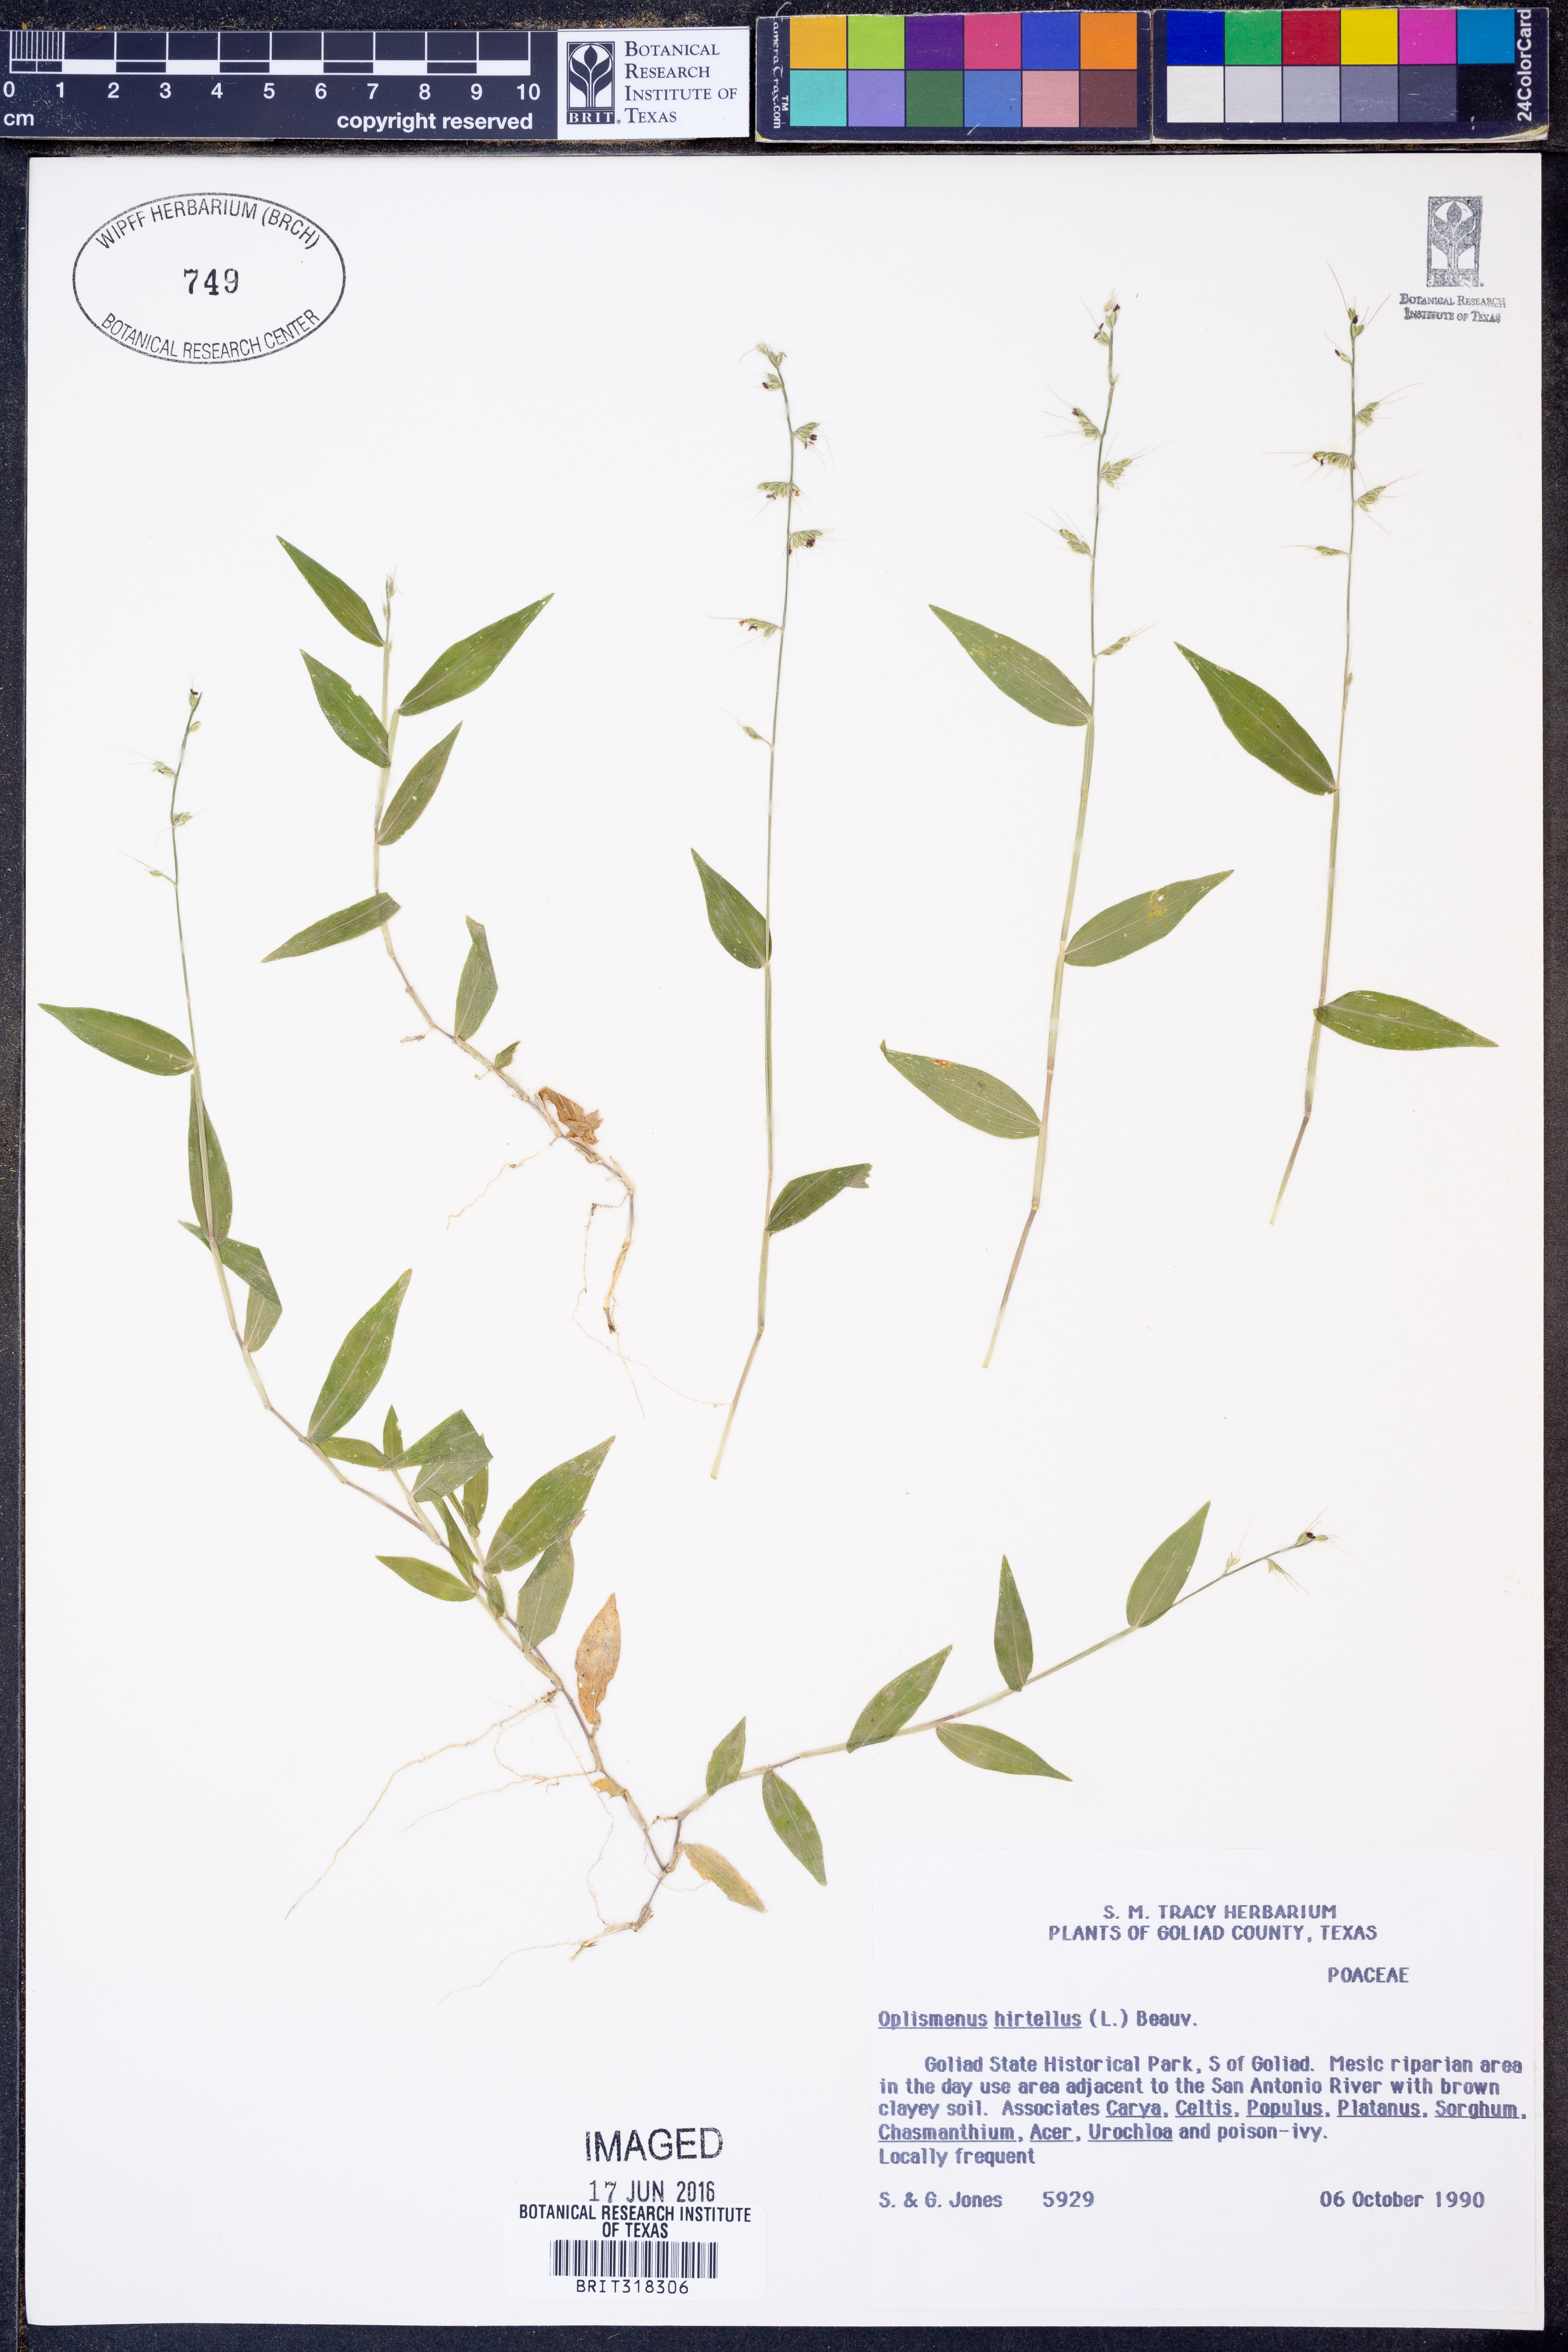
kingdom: Plantae
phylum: Tracheophyta
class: Liliopsida
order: Poales
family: Poaceae
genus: Oplismenus
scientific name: Oplismenus hirtellus
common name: Basketgrass
